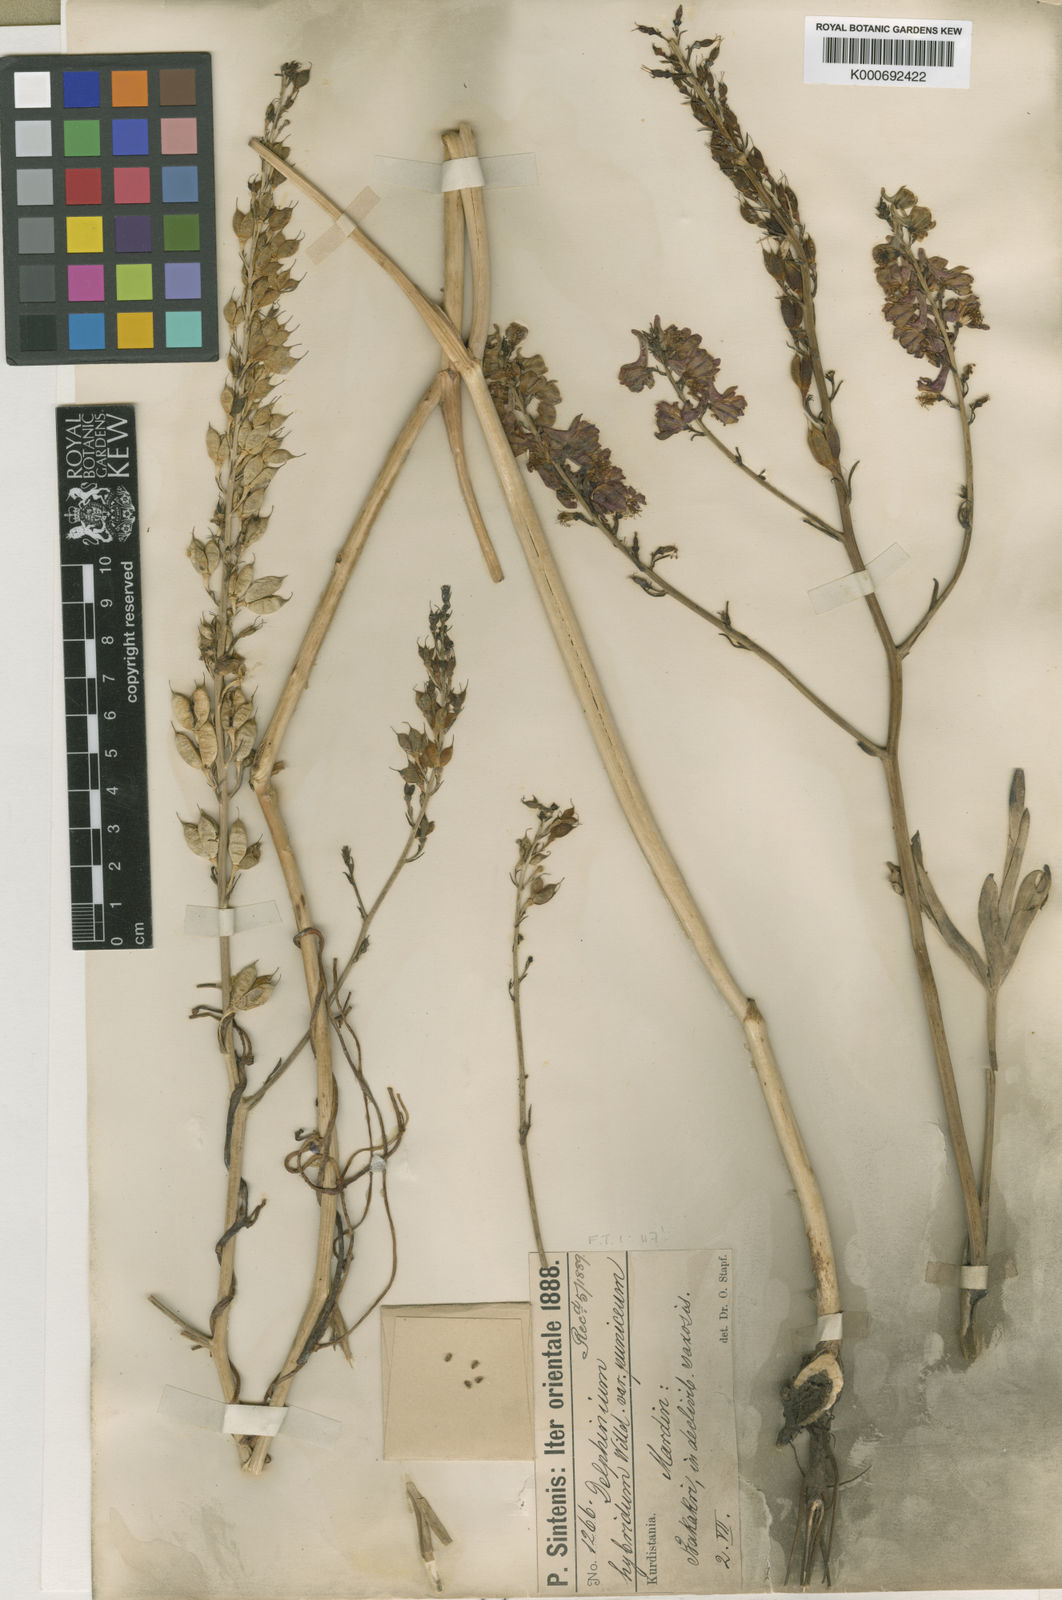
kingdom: Plantae
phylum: Tracheophyta
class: Magnoliopsida
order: Ranunculales
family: Ranunculaceae
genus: Delphinium
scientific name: Delphinium macrostachyum
